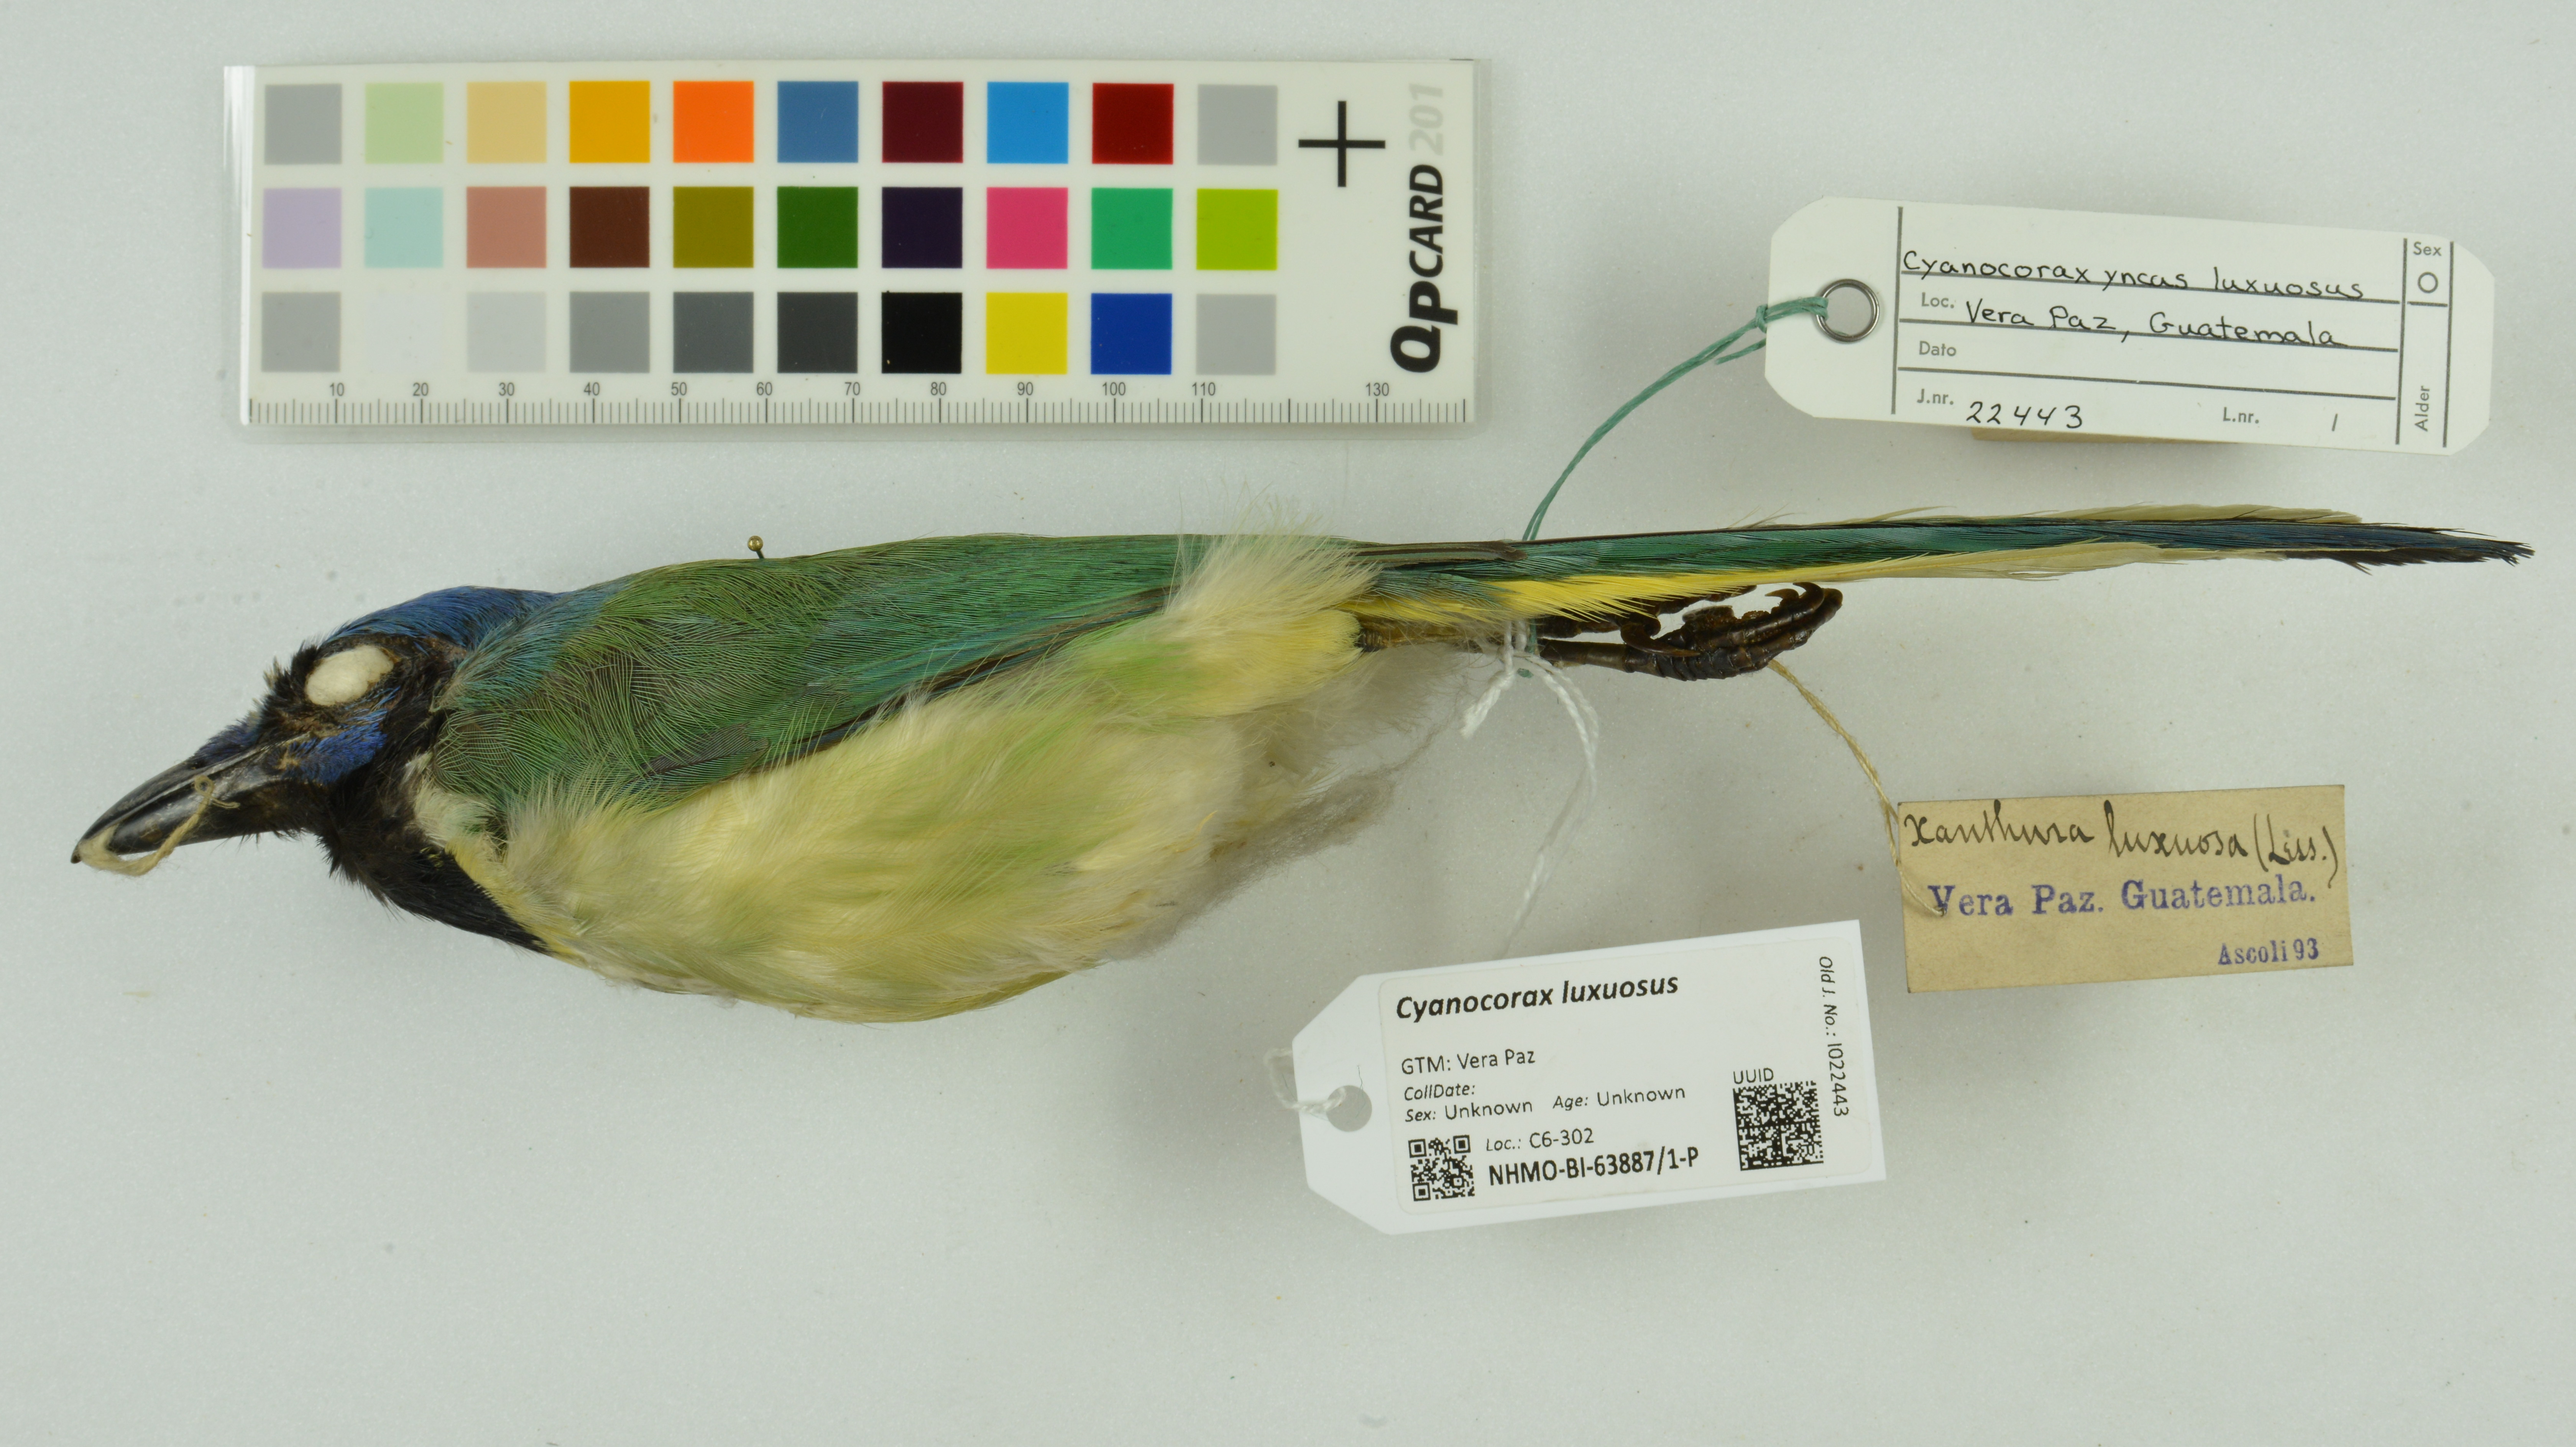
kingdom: Animalia
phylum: Chordata
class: Aves
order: Passeriformes
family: Corvidae
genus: Cyanocorax
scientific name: Cyanocorax luxuosus
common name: Green jay
